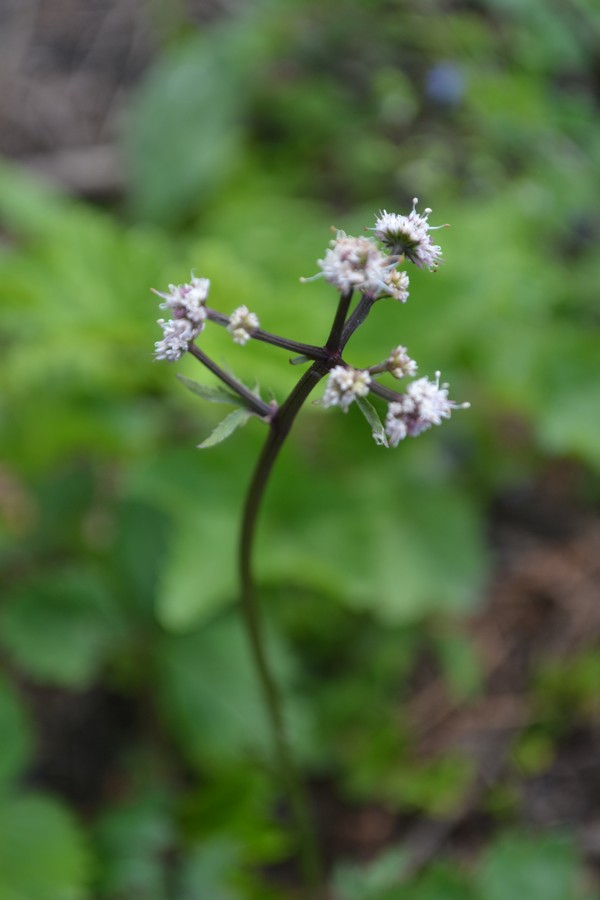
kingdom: Plantae
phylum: Tracheophyta
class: Magnoliopsida
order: Apiales
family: Apiaceae
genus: Sanicula
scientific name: Sanicula europaea
